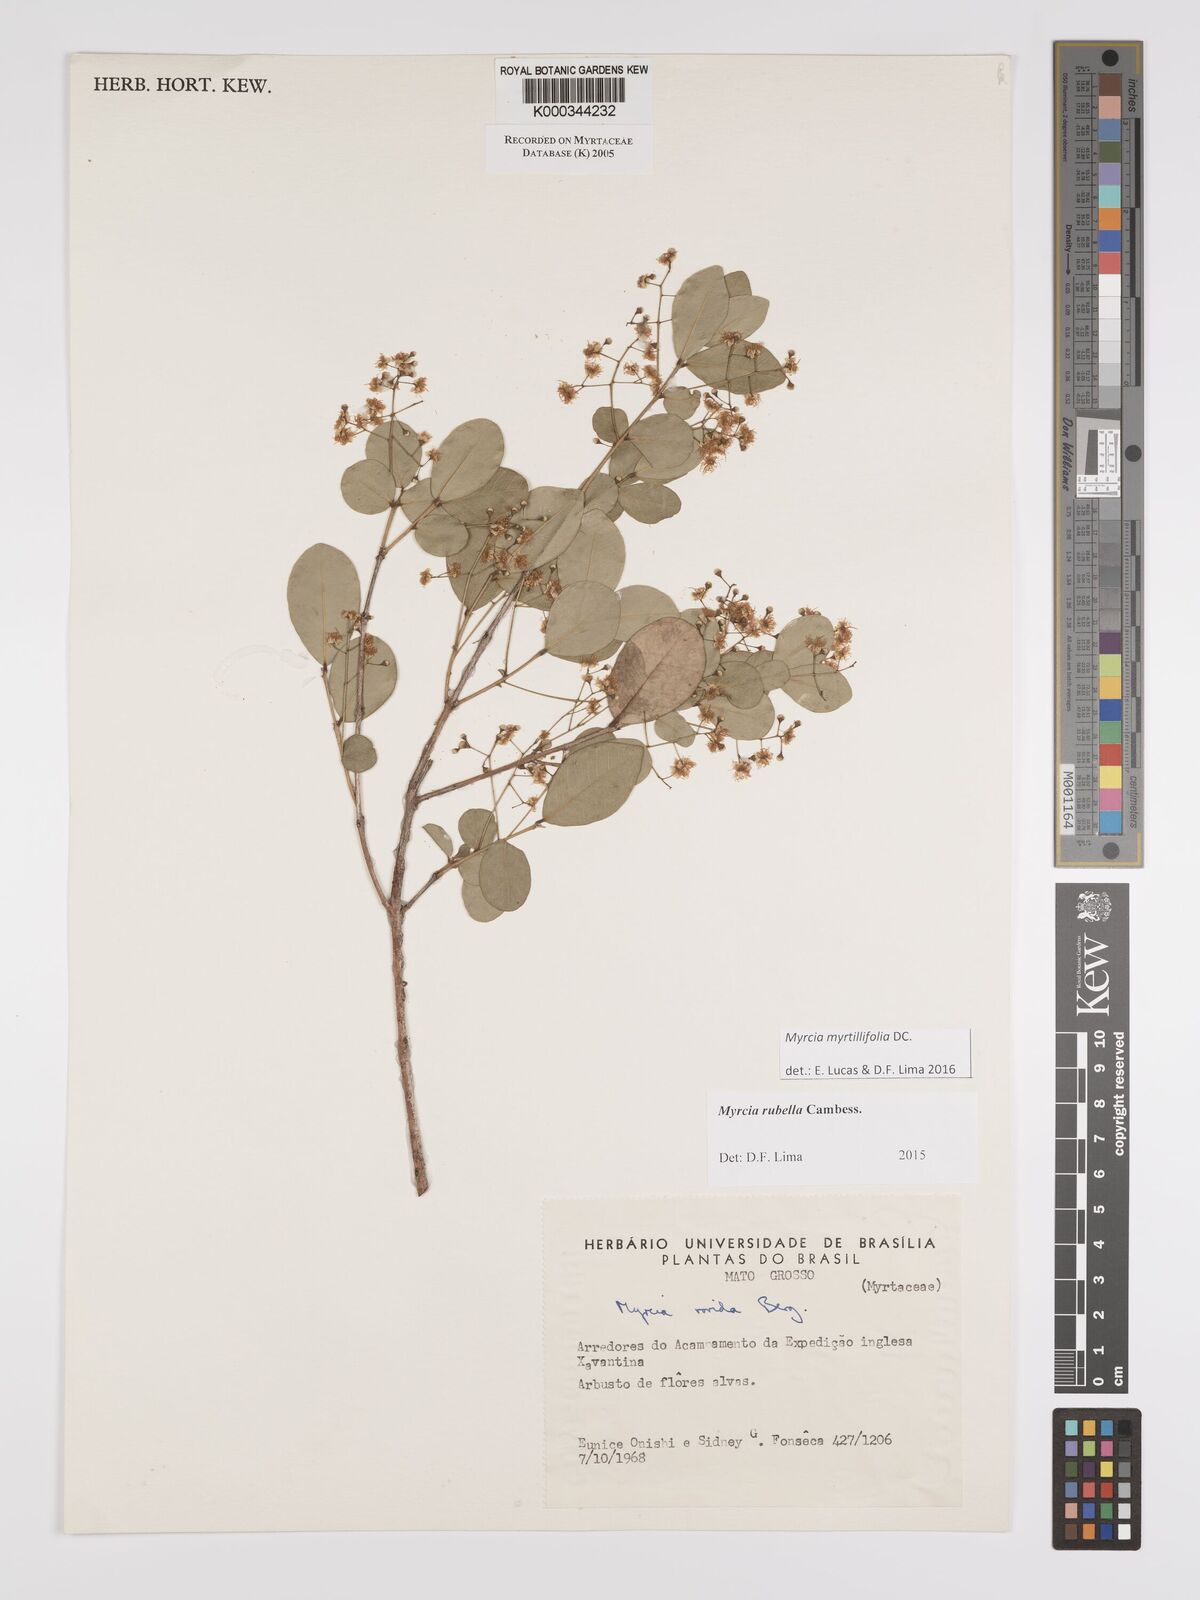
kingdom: Plantae
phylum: Tracheophyta
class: Magnoliopsida
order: Myrtales
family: Myrtaceae
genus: Myrcia
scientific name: Myrcia guianensis
